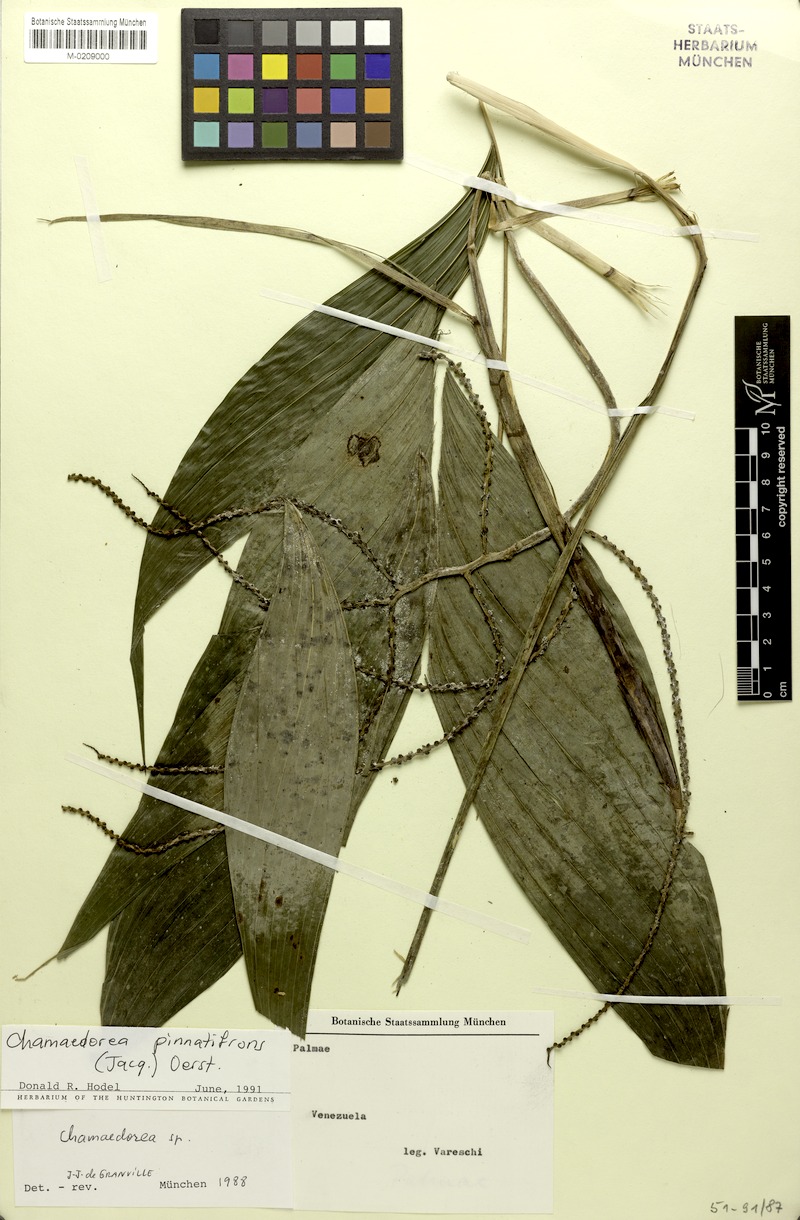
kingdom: Plantae
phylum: Tracheophyta
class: Liliopsida
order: Arecales
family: Arecaceae
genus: Chamaedorea
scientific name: Chamaedorea pinnatifrons
